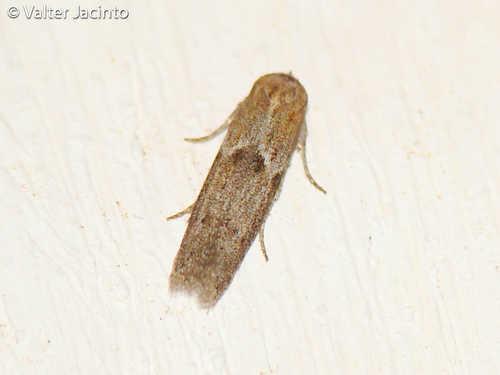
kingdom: Animalia
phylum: Arthropoda
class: Insecta
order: Lepidoptera
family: Blastobasidae
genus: Blastobasis
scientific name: Blastobasis phycidella
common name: Hampshire dowd
